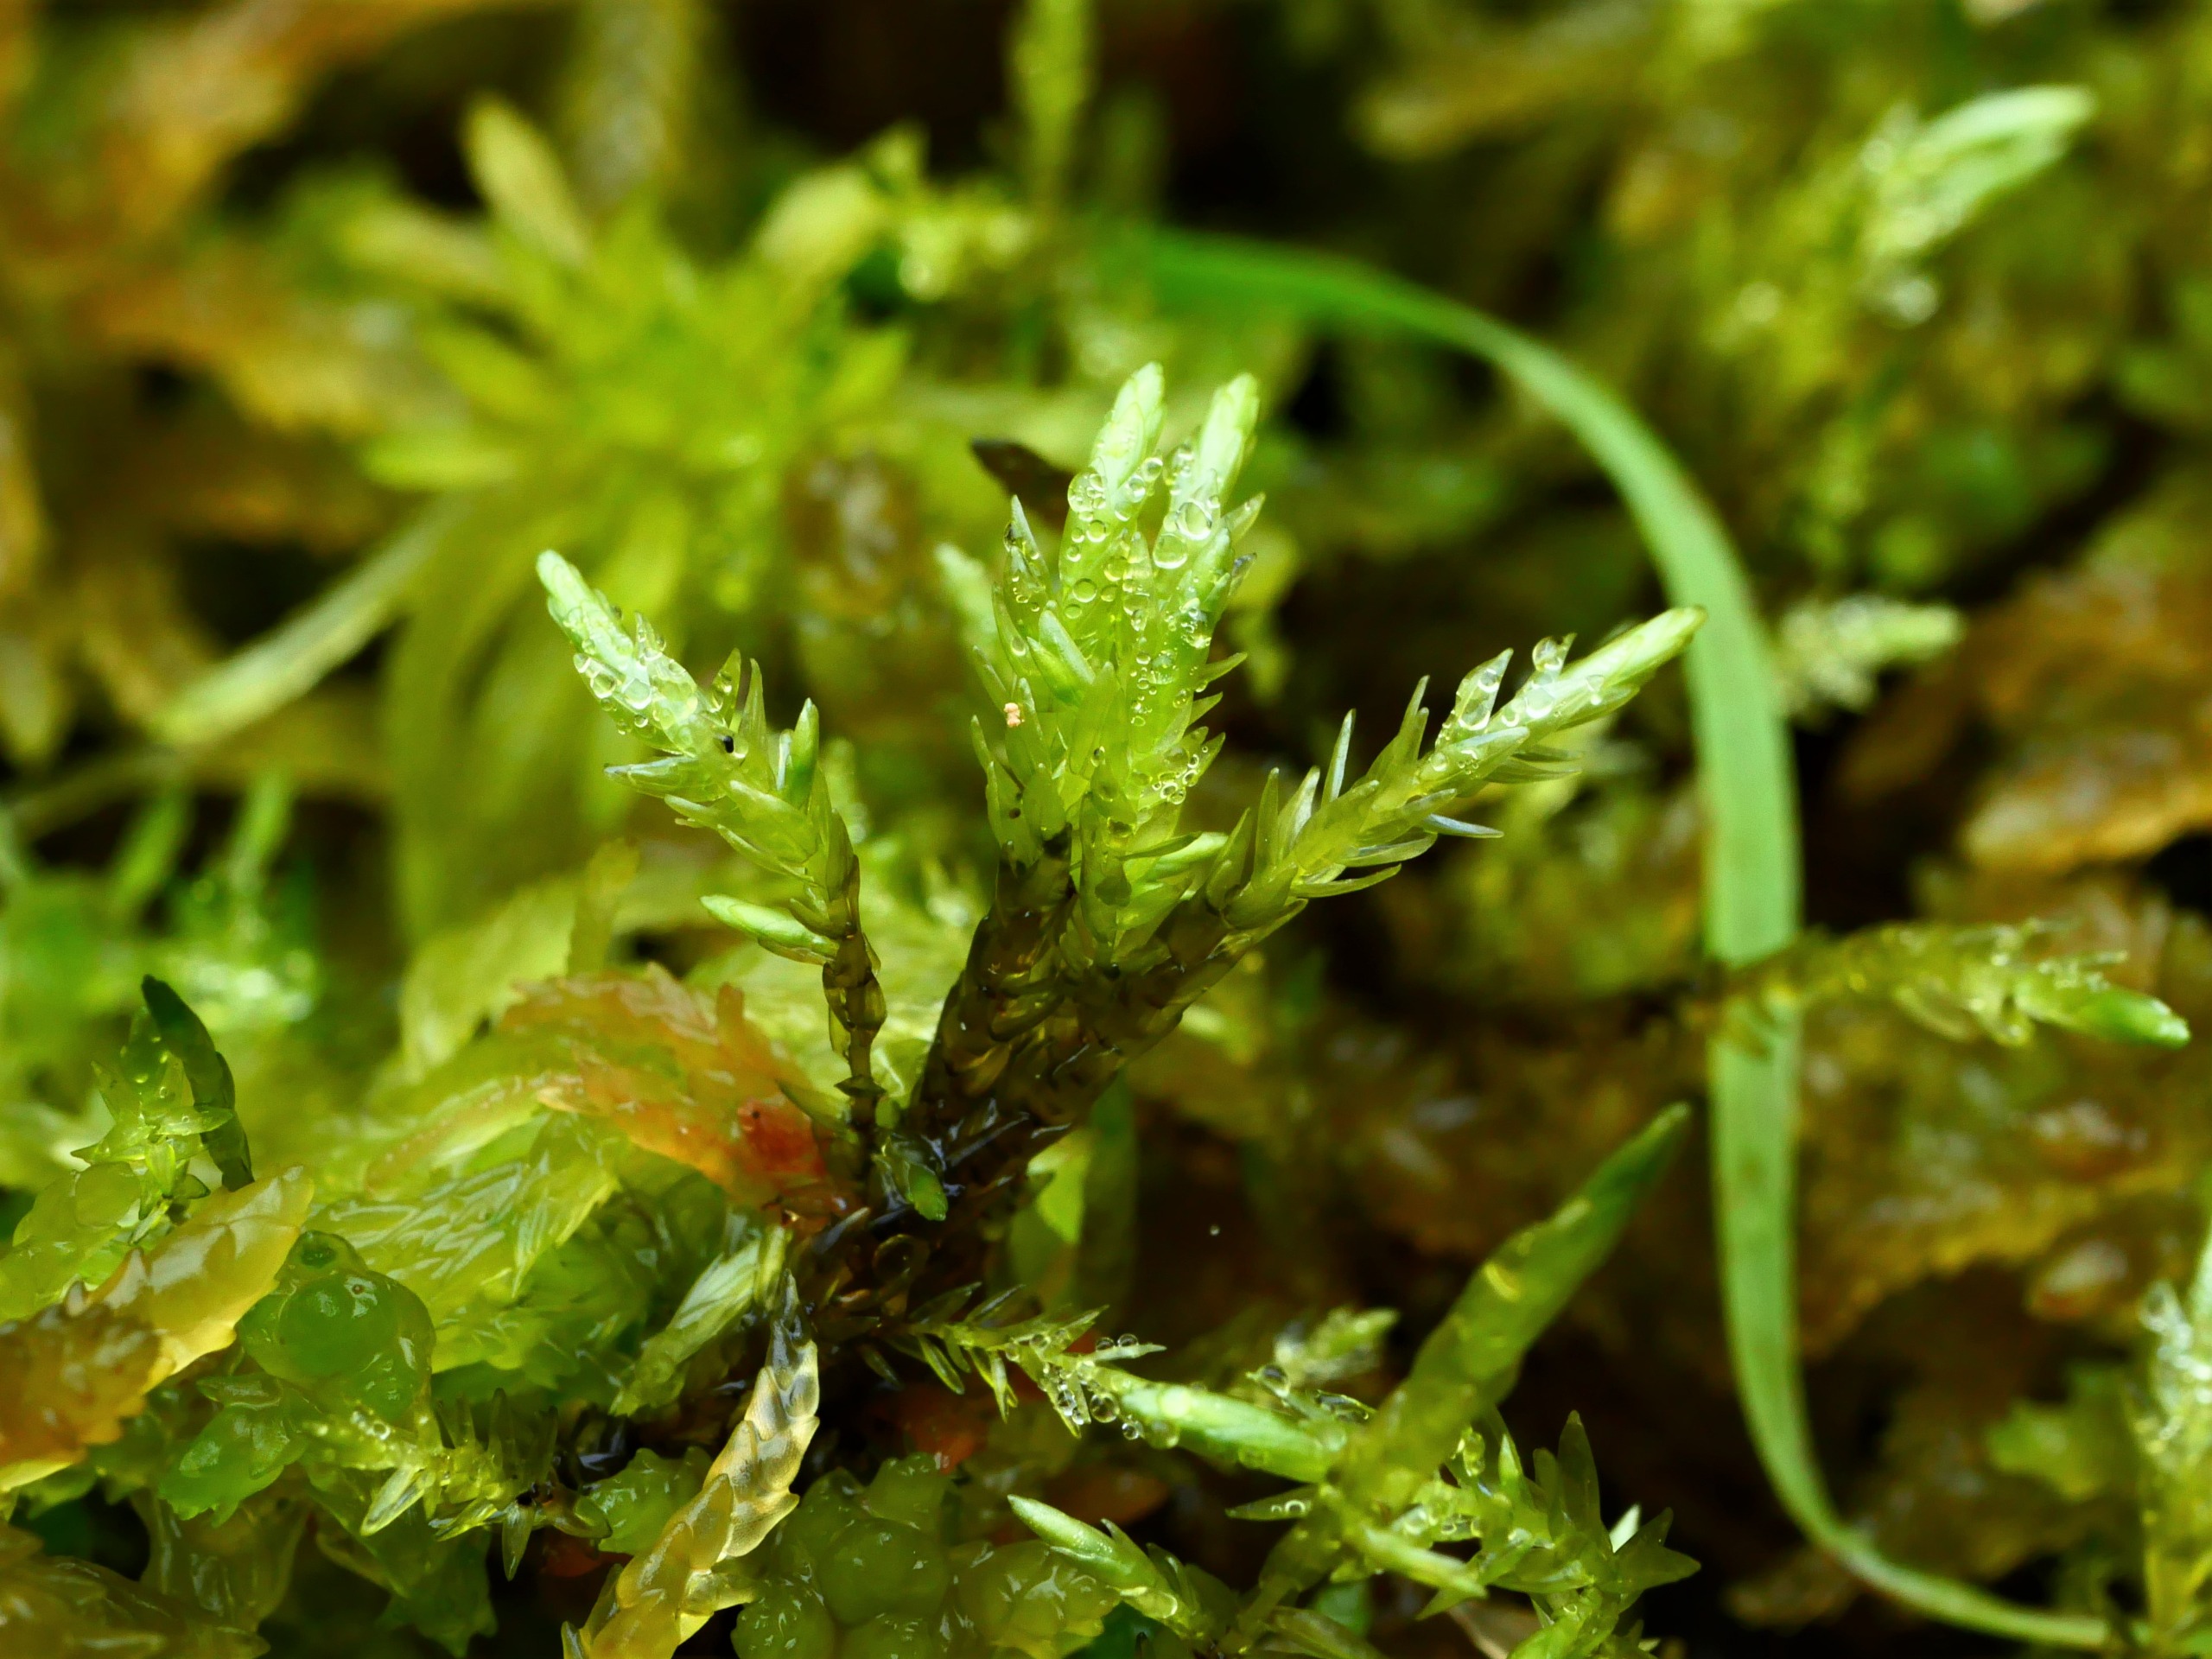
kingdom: Plantae
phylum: Bryophyta
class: Bryopsida
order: Hypnales
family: Calliergonaceae
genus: Straminergon
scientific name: Straminergon stramineum
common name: Tråd-skebladsmos
